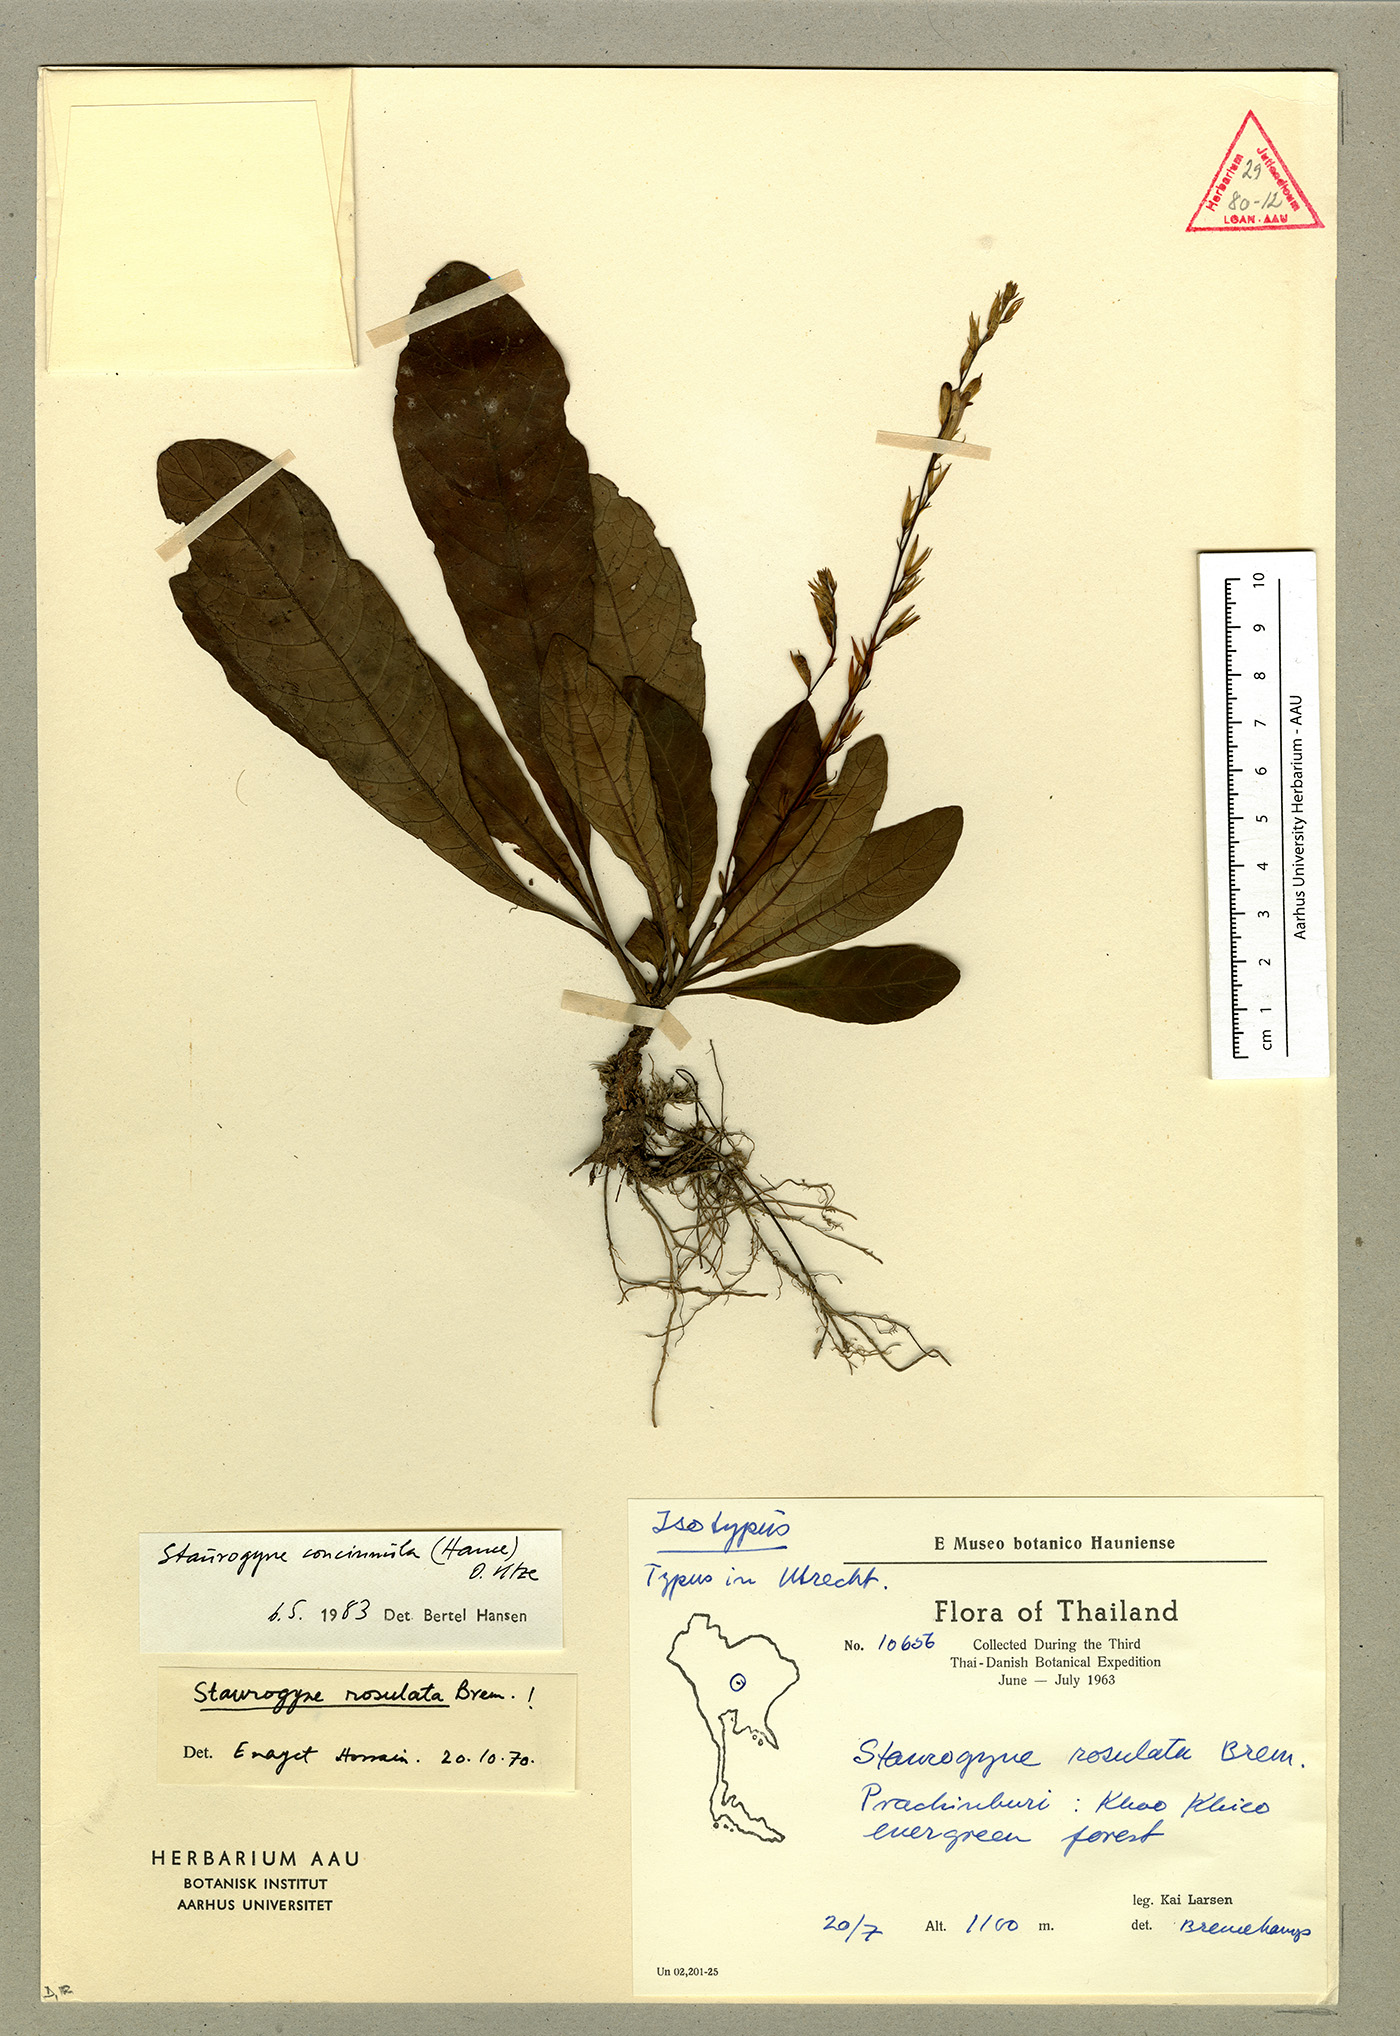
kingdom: Plantae
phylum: Tracheophyta
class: Magnoliopsida
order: Lamiales
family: Acanthaceae
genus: Staurogyne
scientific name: Staurogyne concinnula
